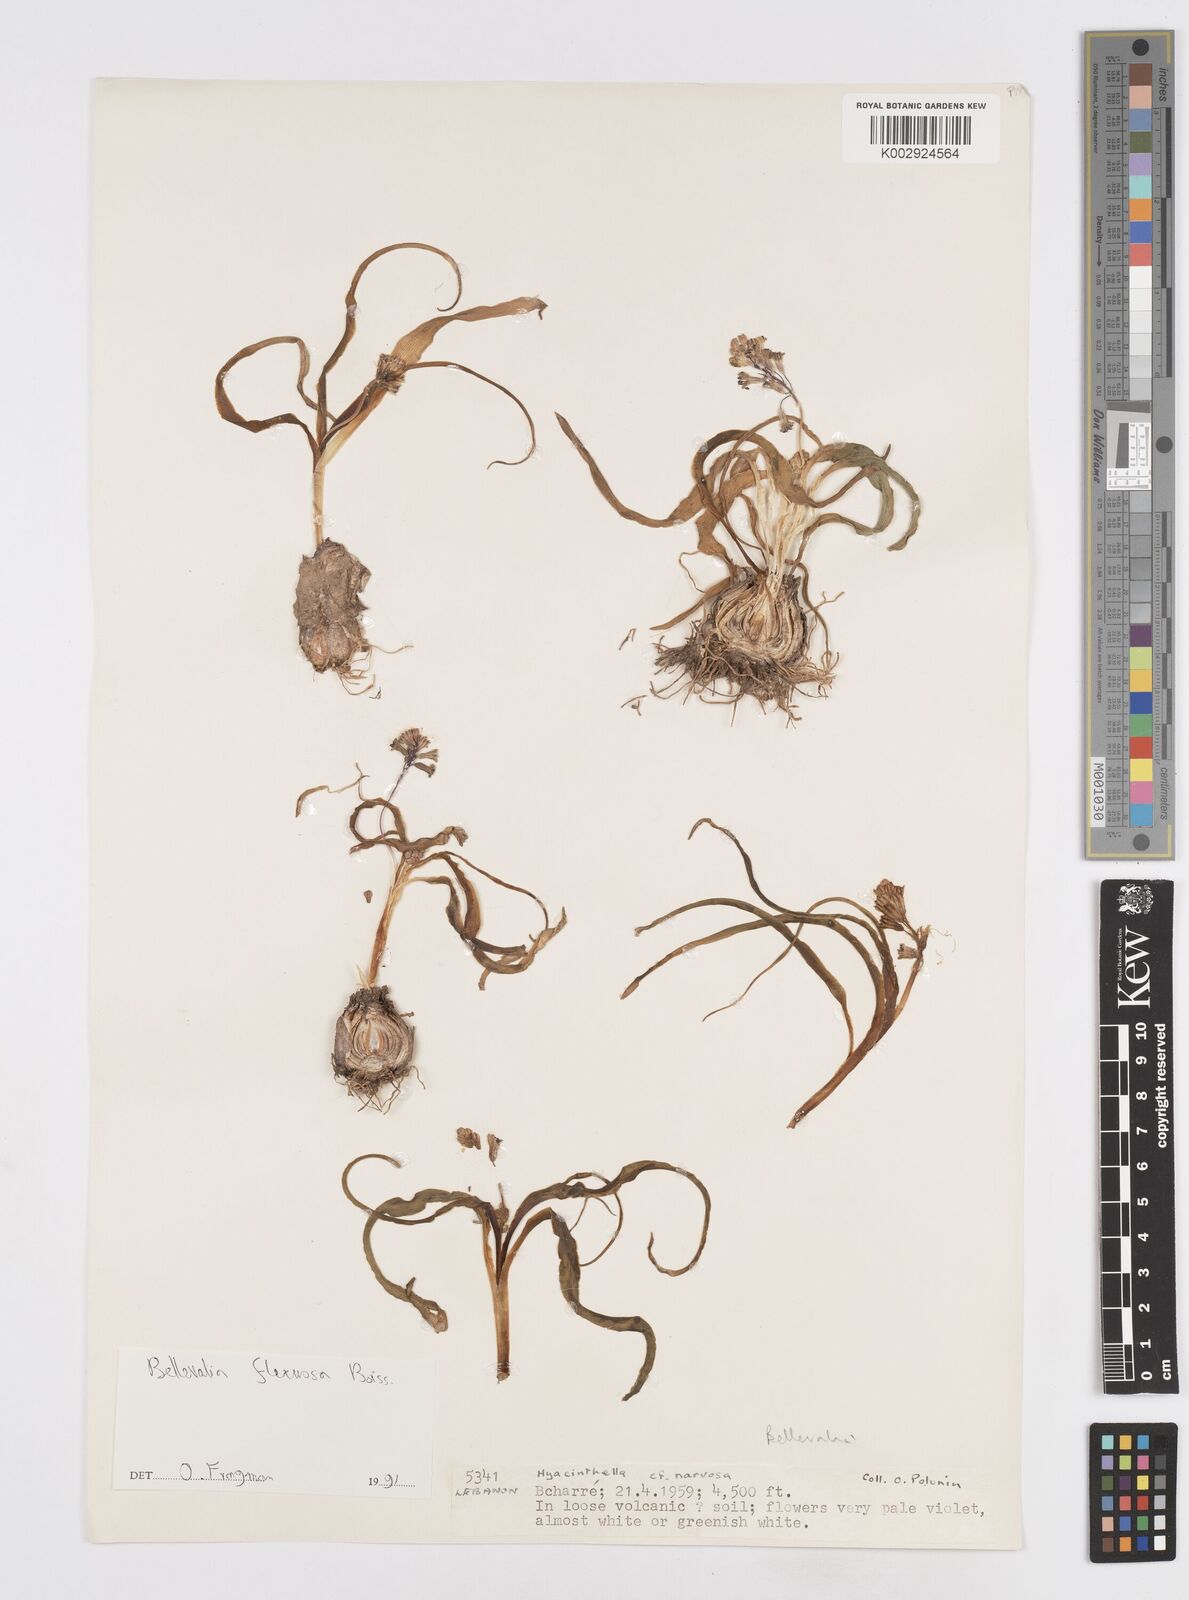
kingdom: Plantae
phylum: Tracheophyta
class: Liliopsida
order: Asparagales
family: Asparagaceae
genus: Bellevalia
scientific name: Bellevalia flexuosa
